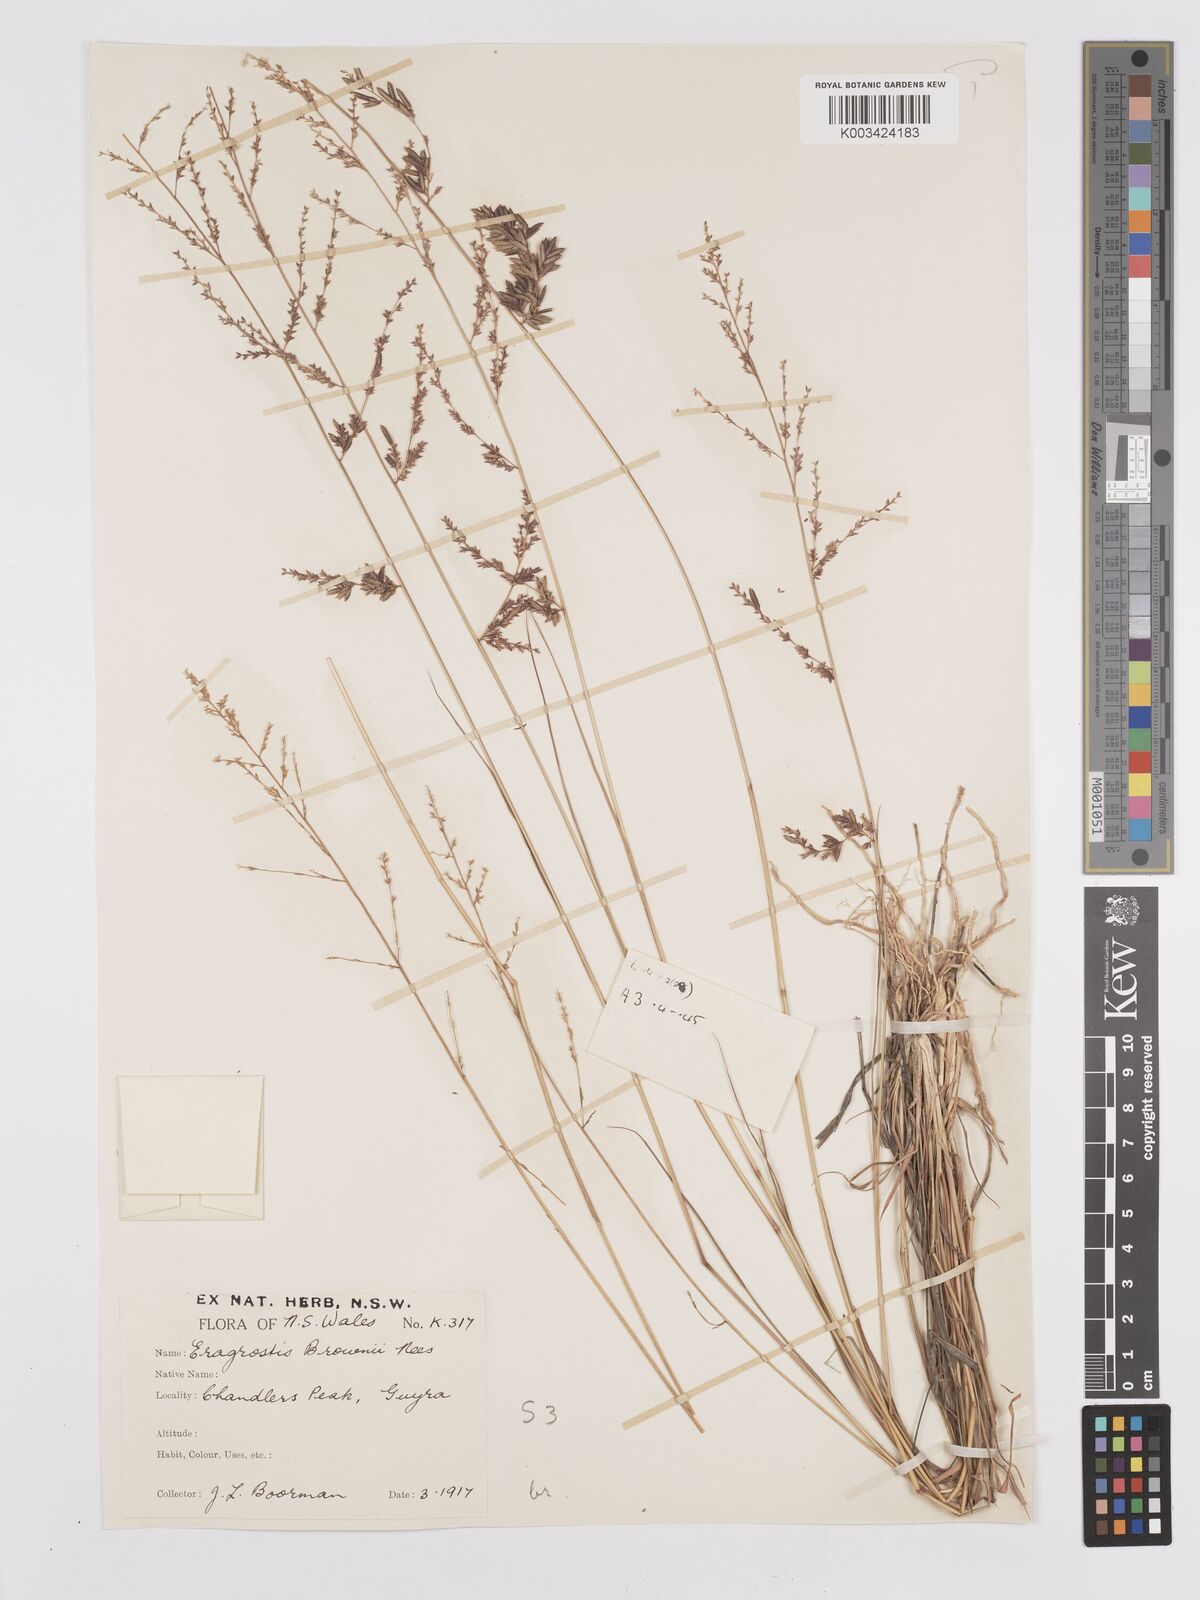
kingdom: Plantae
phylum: Tracheophyta
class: Liliopsida
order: Poales
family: Poaceae
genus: Eragrostis
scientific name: Eragrostis brownii
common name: Lovegrass
